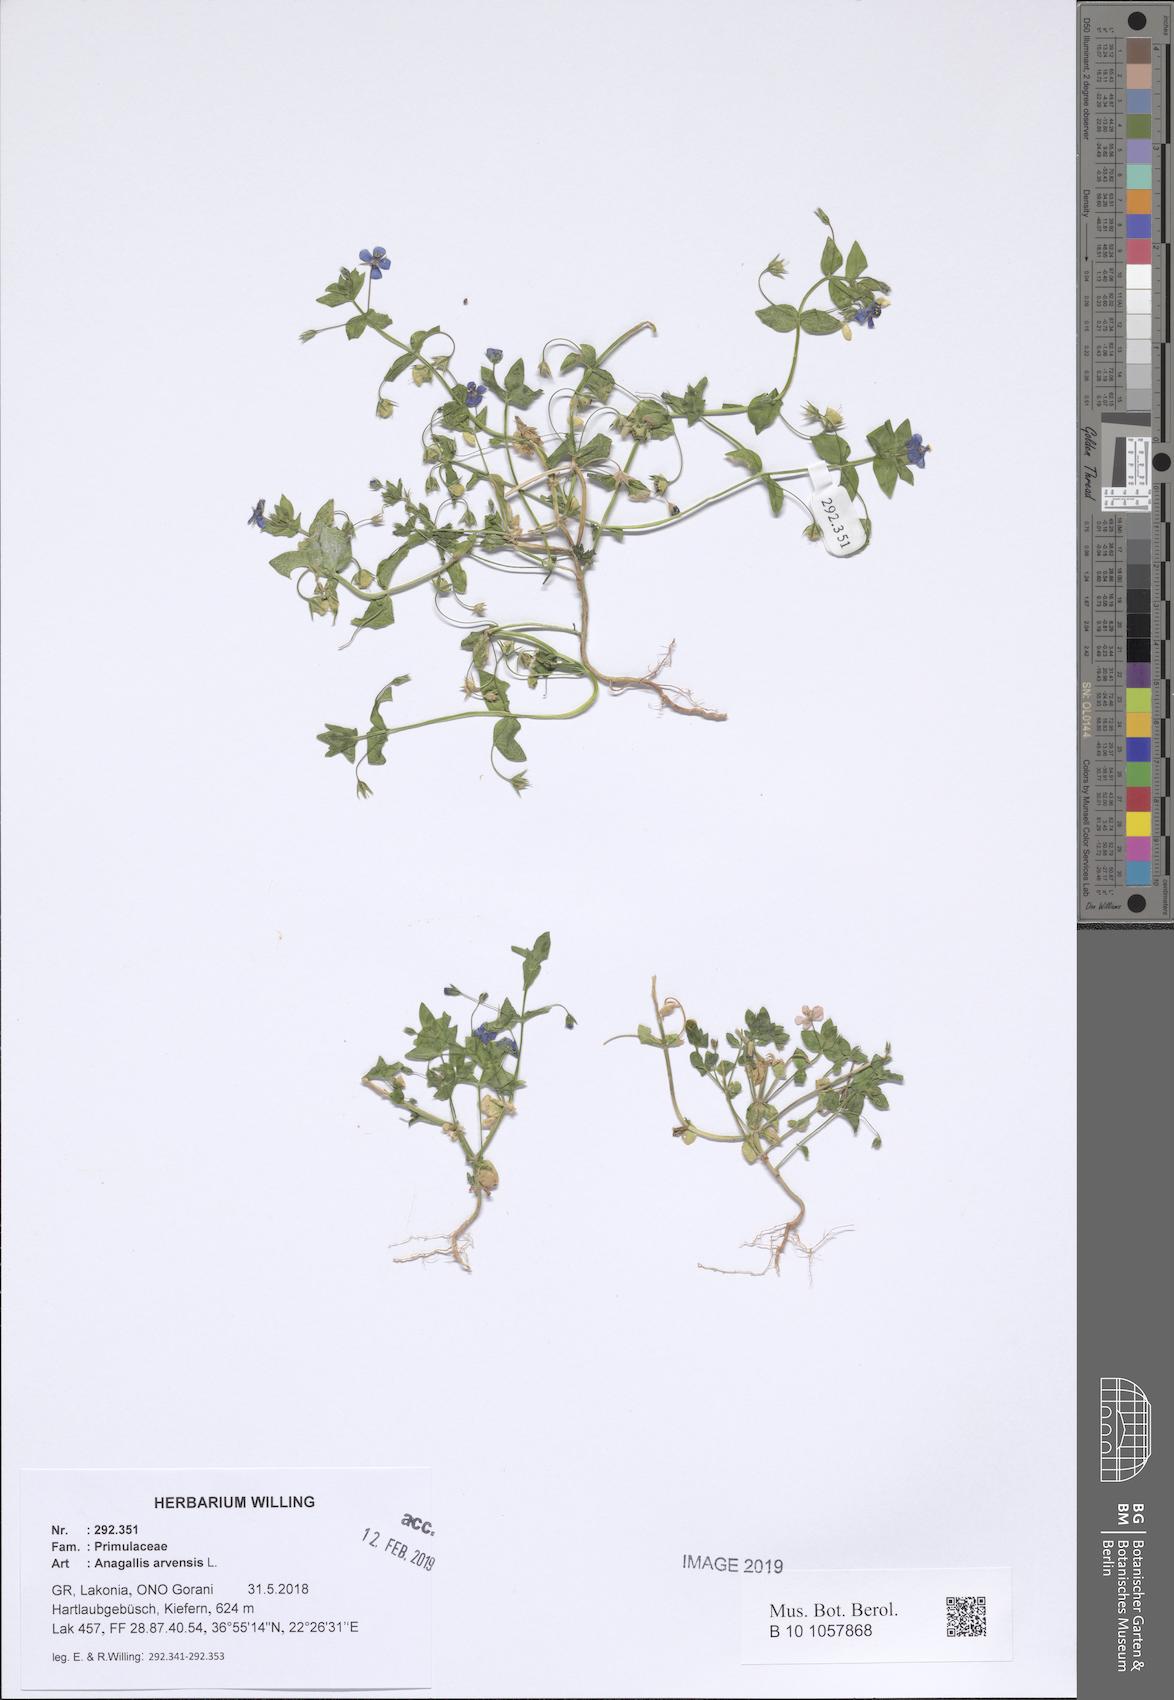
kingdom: Plantae
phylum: Tracheophyta
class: Magnoliopsida
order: Ericales
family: Primulaceae
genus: Lysimachia
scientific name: Lysimachia arvensis
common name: Scarlet pimpernel
